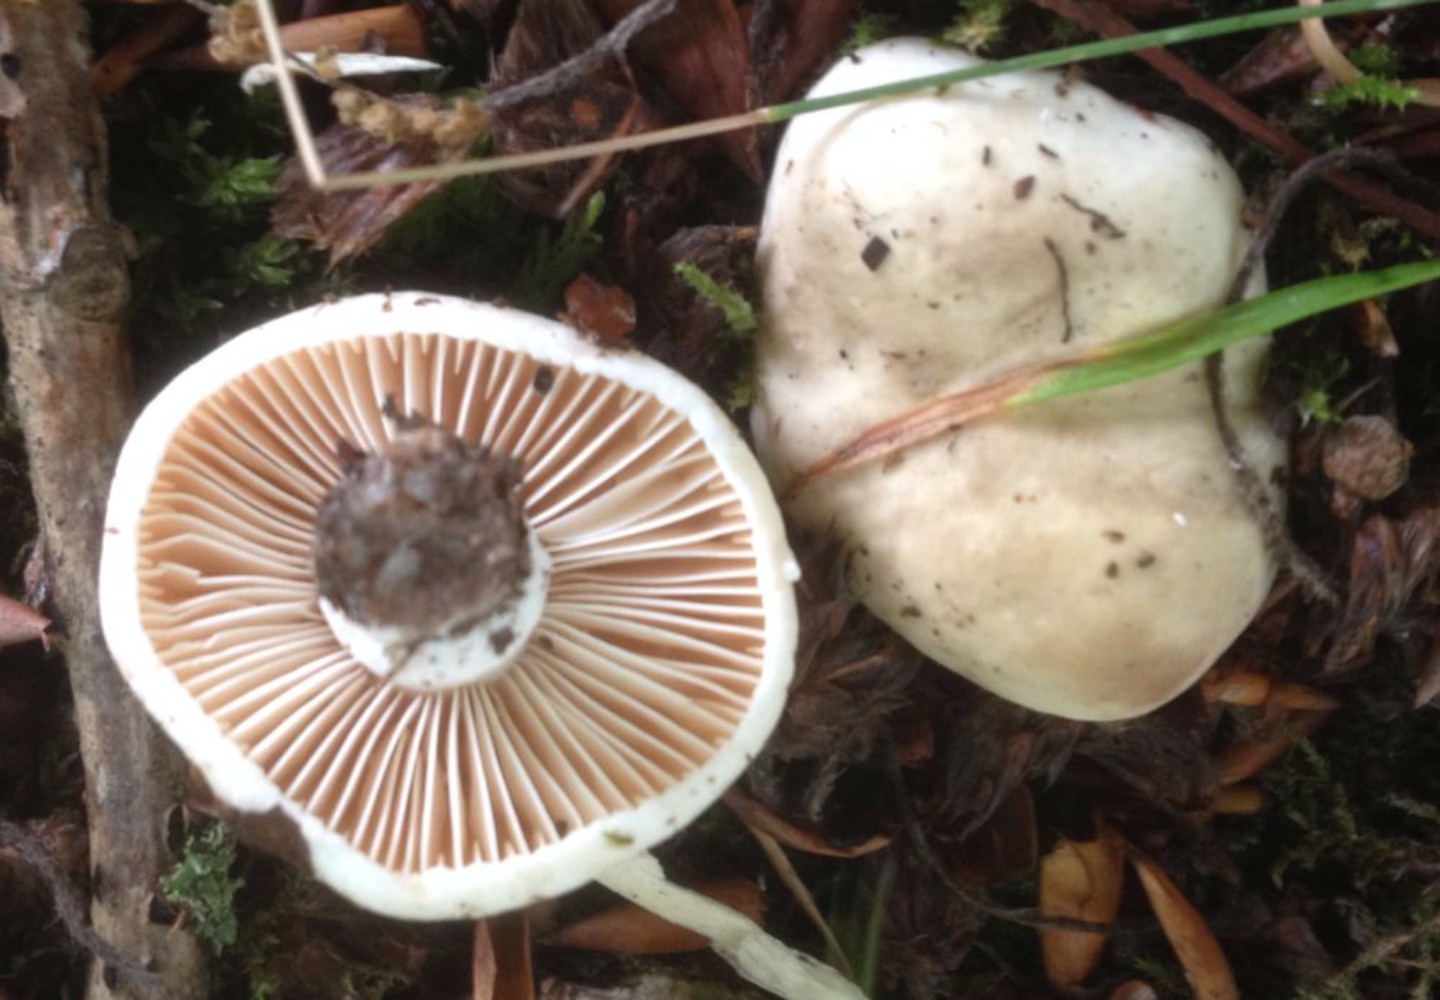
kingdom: Fungi
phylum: Basidiomycota
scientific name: Basidiomycota
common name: basidiesvampe
